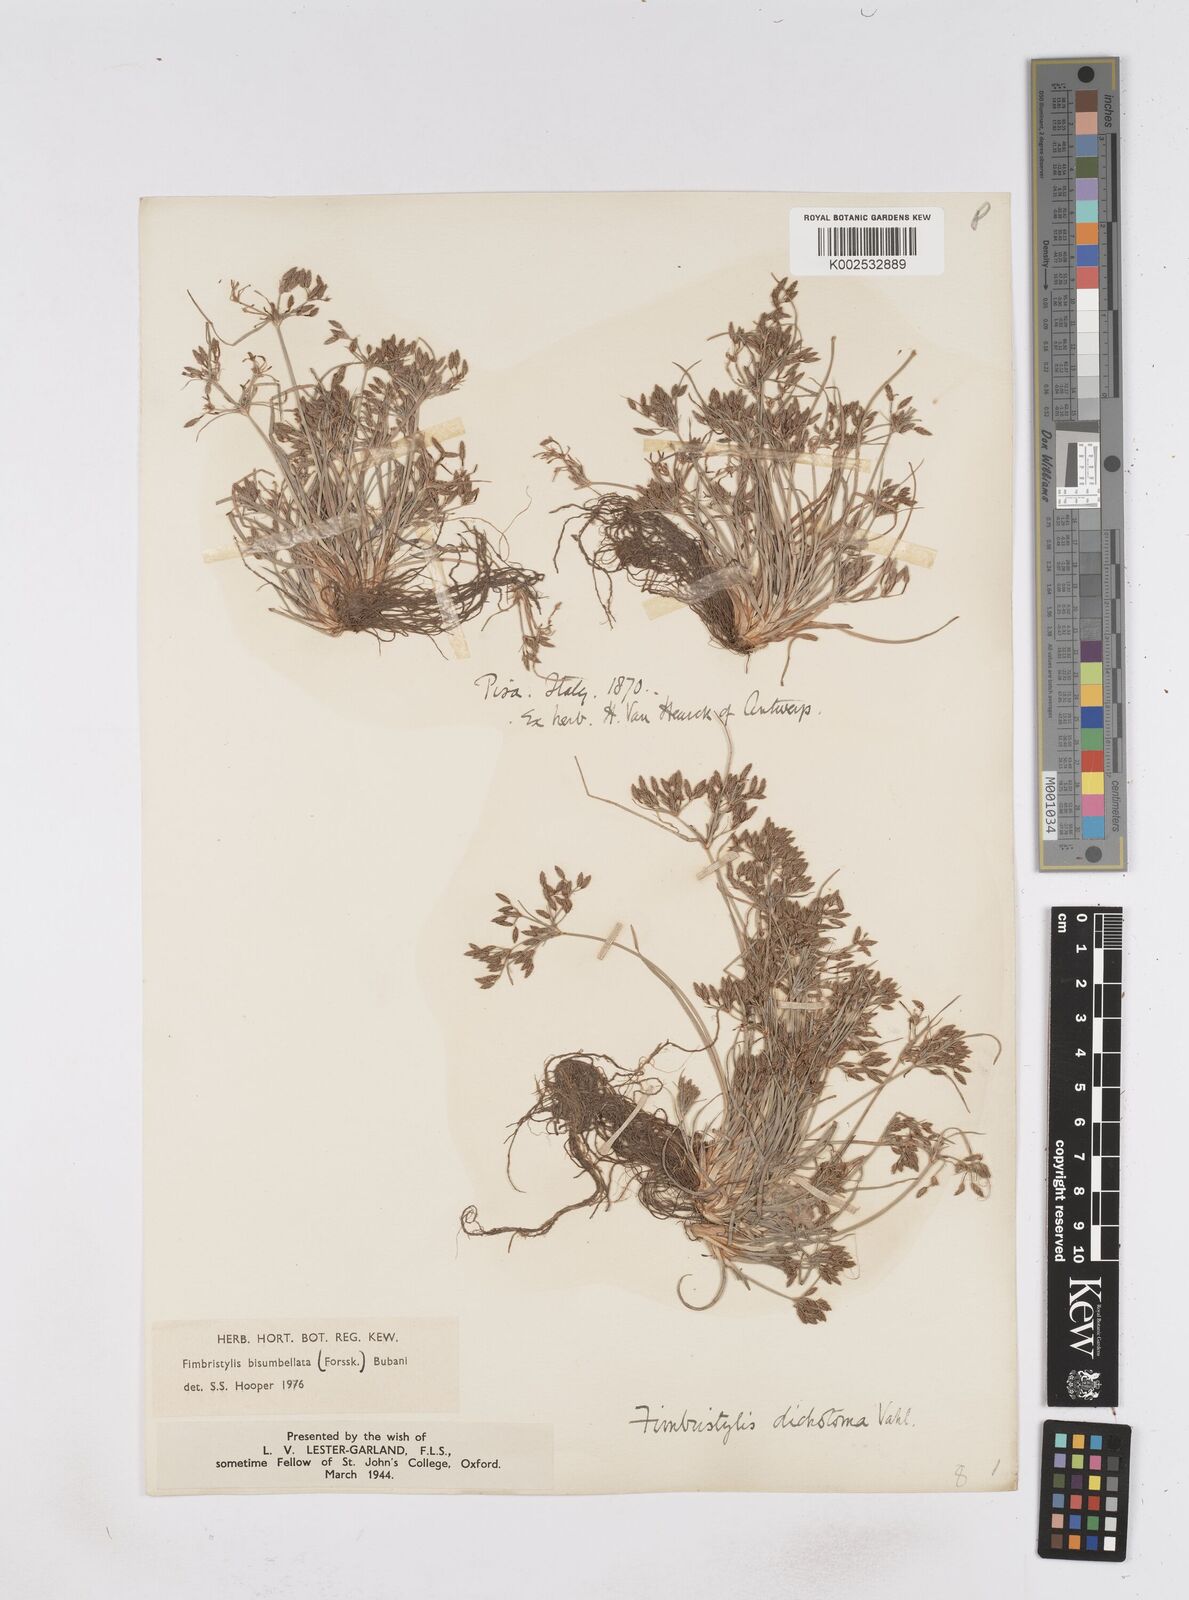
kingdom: Plantae
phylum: Tracheophyta
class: Liliopsida
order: Poales
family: Cyperaceae
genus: Fimbristylis
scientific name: Fimbristylis bisumbellata
